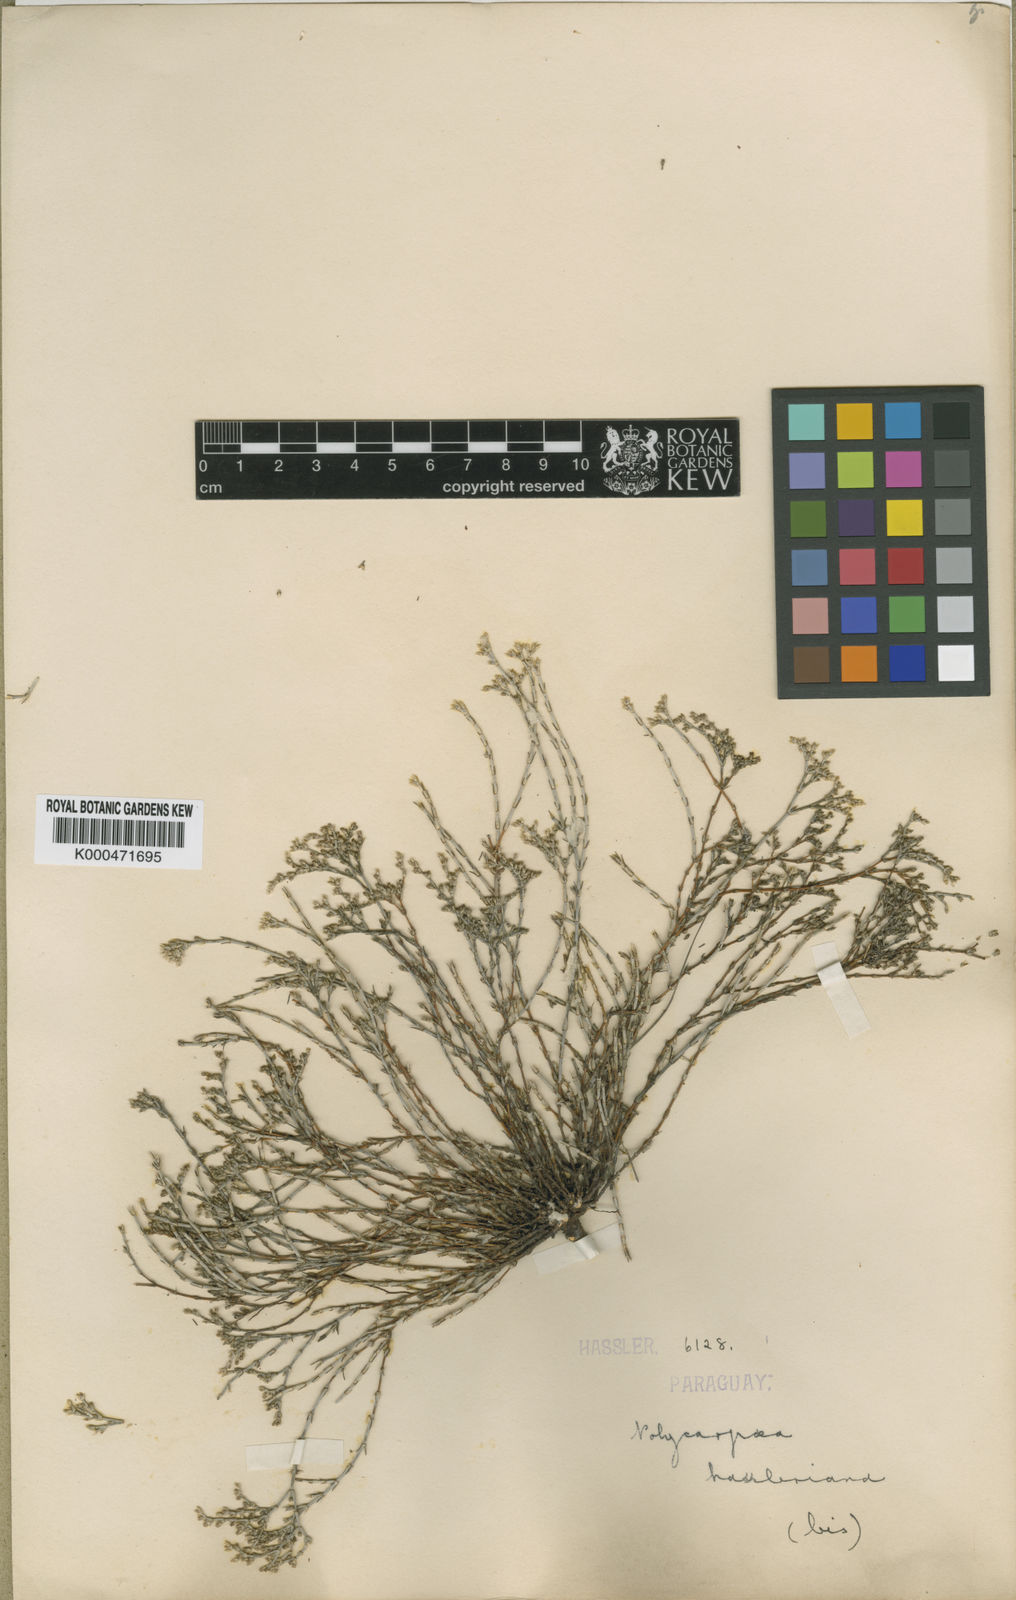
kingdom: Plantae
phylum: Tracheophyta
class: Magnoliopsida
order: Caryophyllales
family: Caryophyllaceae
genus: Polycarpaea
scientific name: Polycarpaea hassleriana
